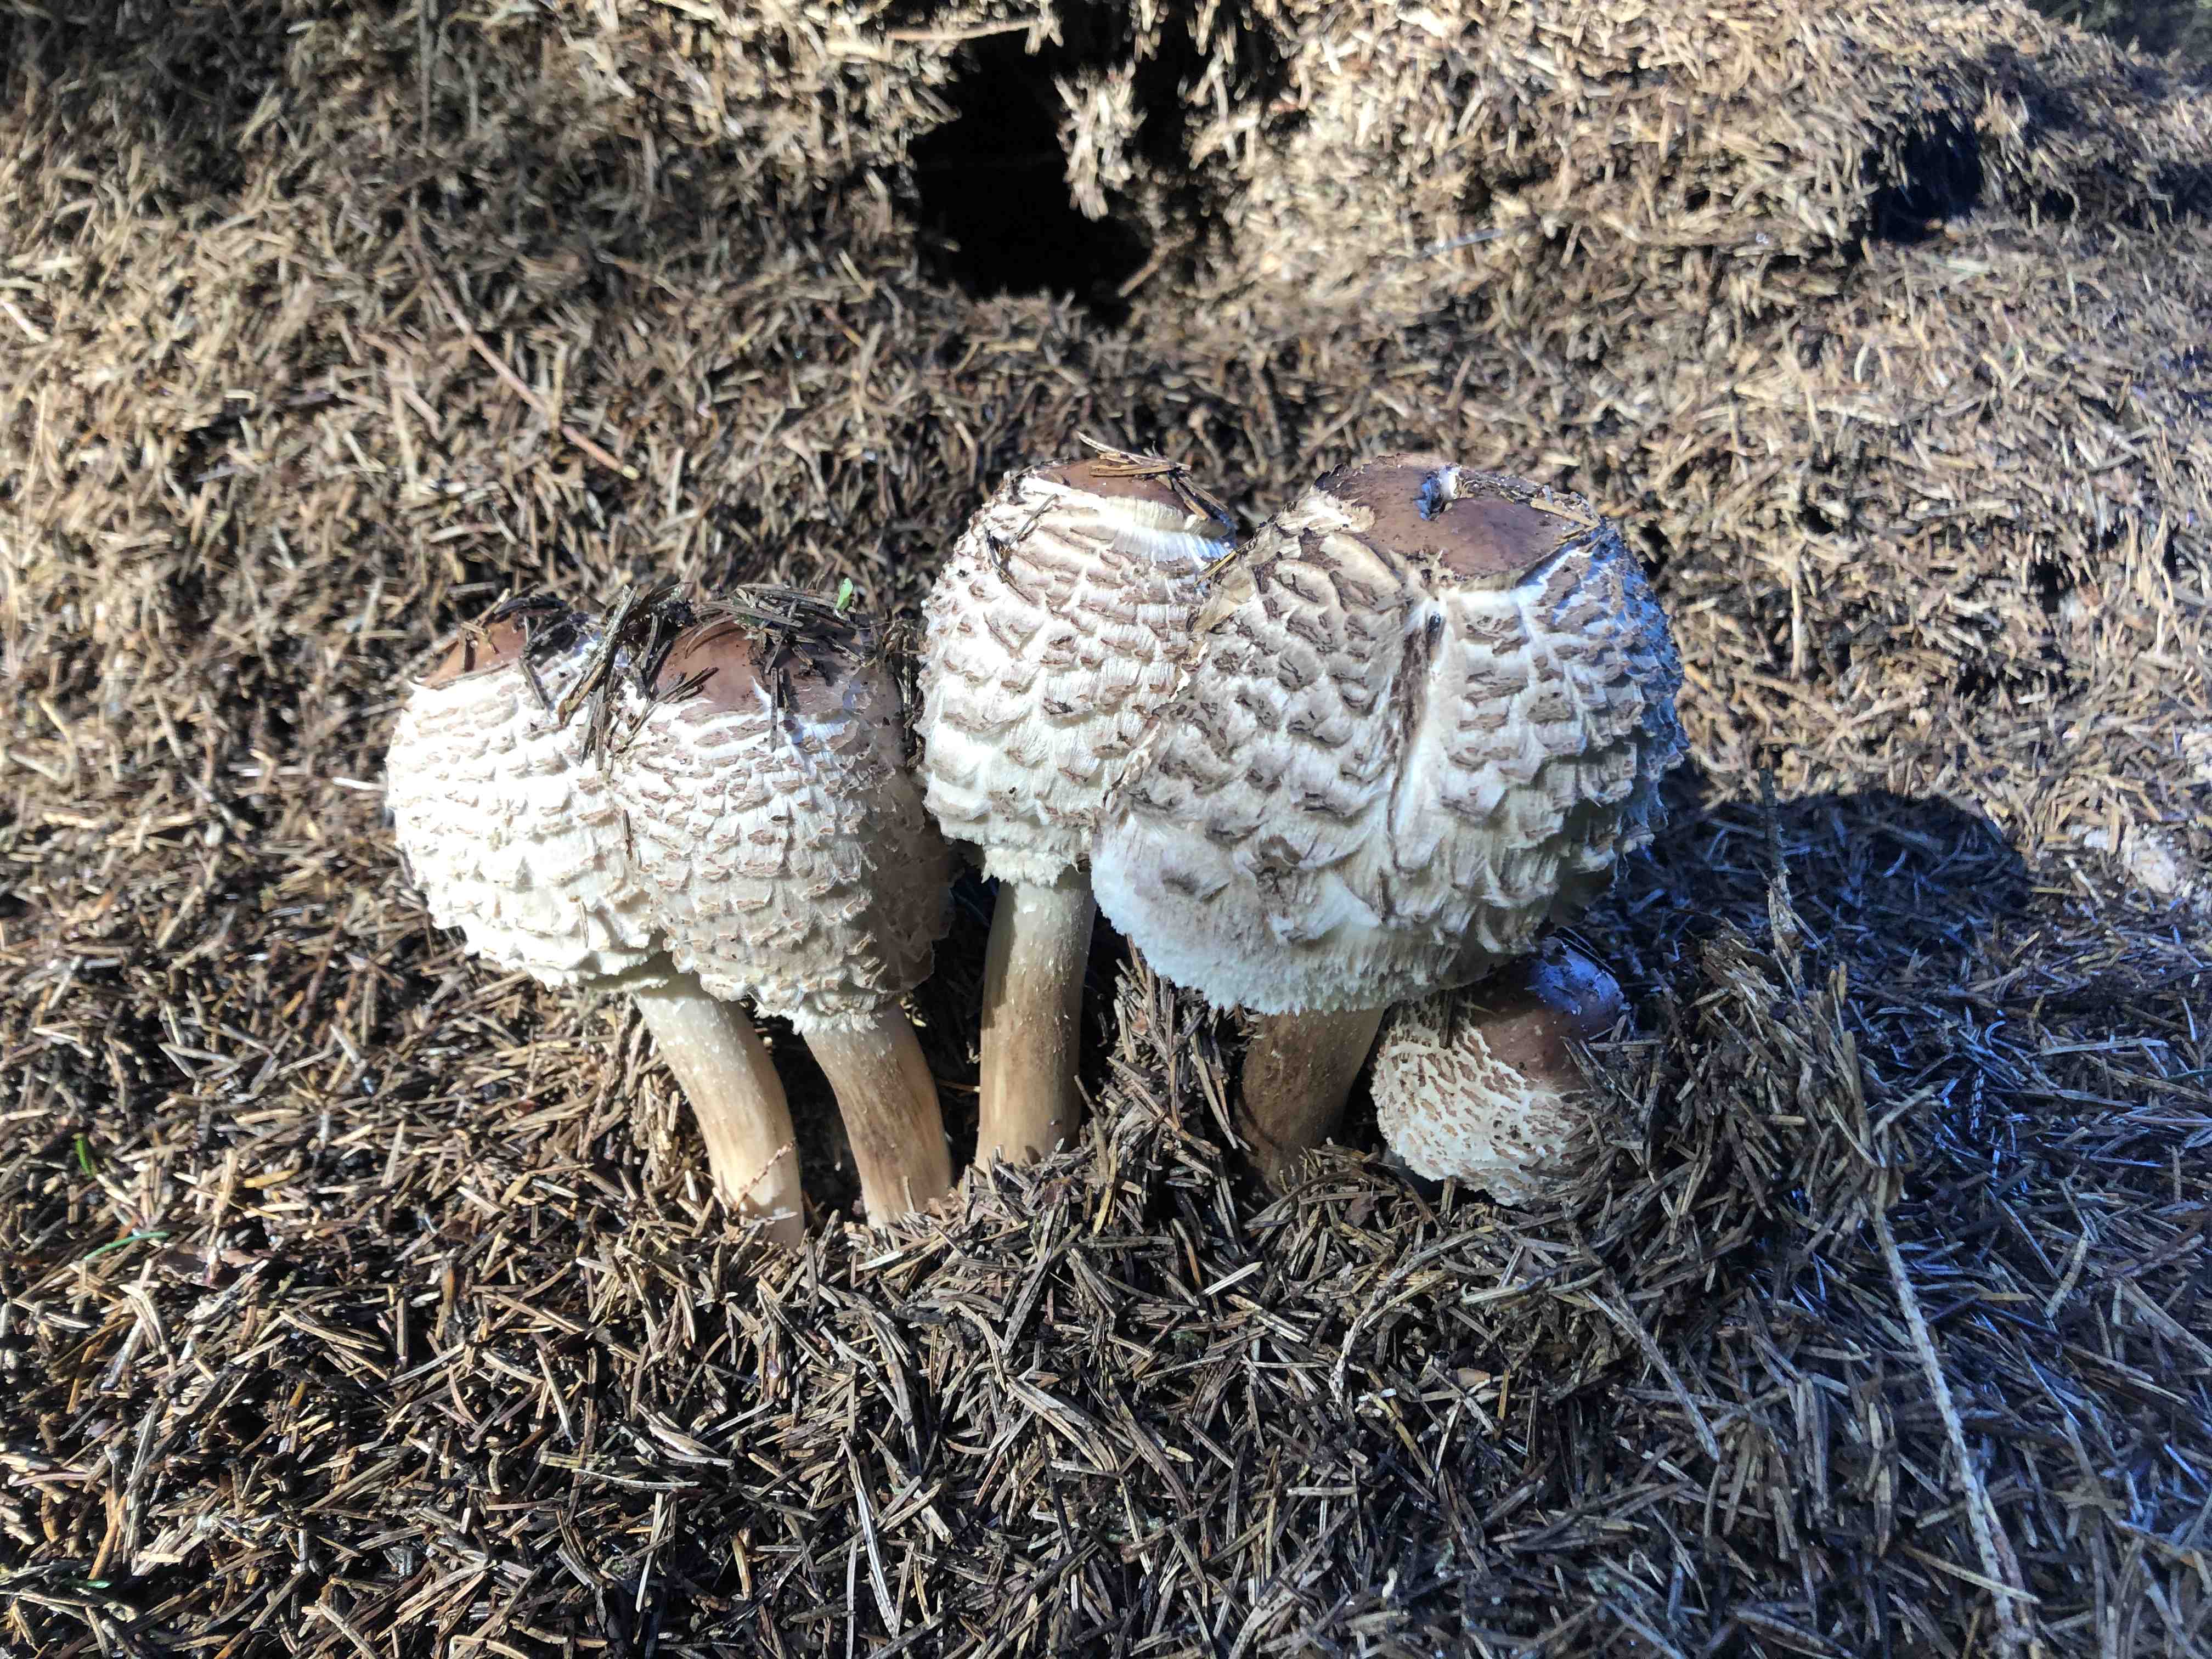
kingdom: Fungi
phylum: Basidiomycota
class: Agaricomycetes
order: Agaricales
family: Agaricaceae
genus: Chlorophyllum
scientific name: Chlorophyllum olivieri
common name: almindelig rabarberhat
